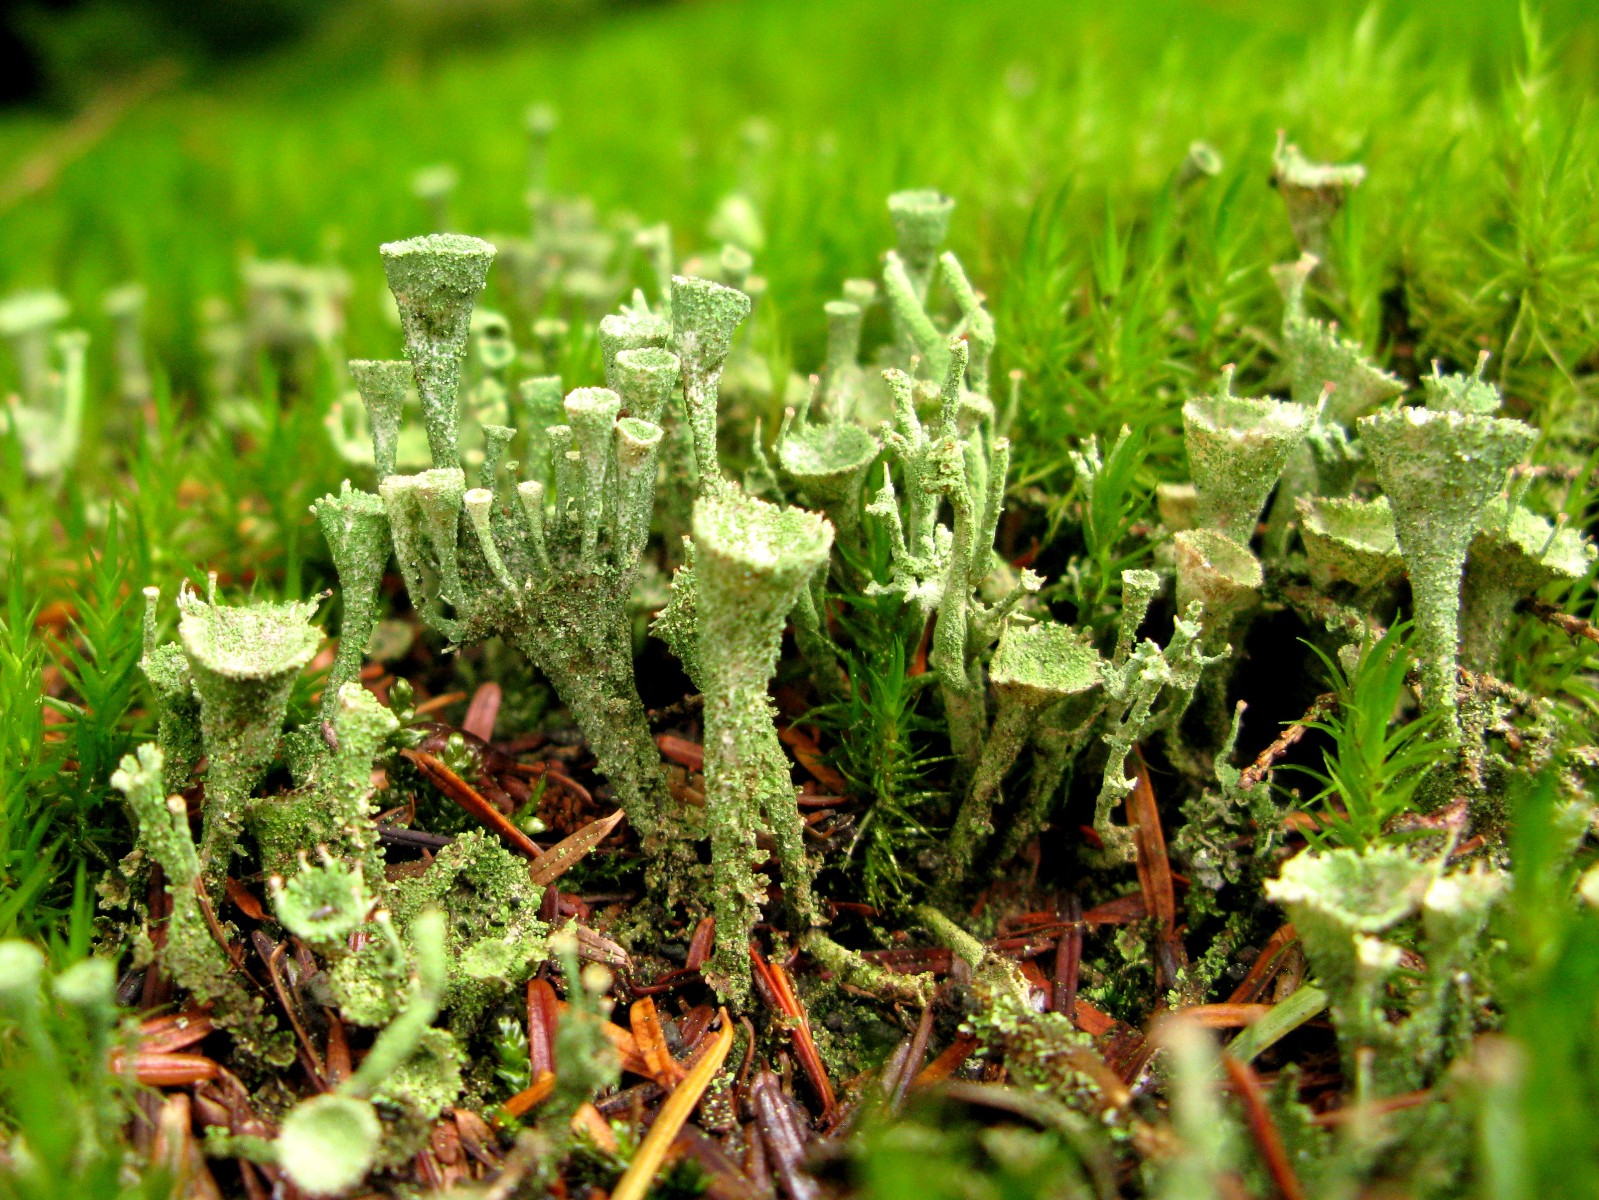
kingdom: Fungi
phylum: Ascomycota
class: Lecanoromycetes
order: Lecanorales
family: Cladoniaceae
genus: Cladonia
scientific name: Cladonia
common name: brungrøn bægerlav
